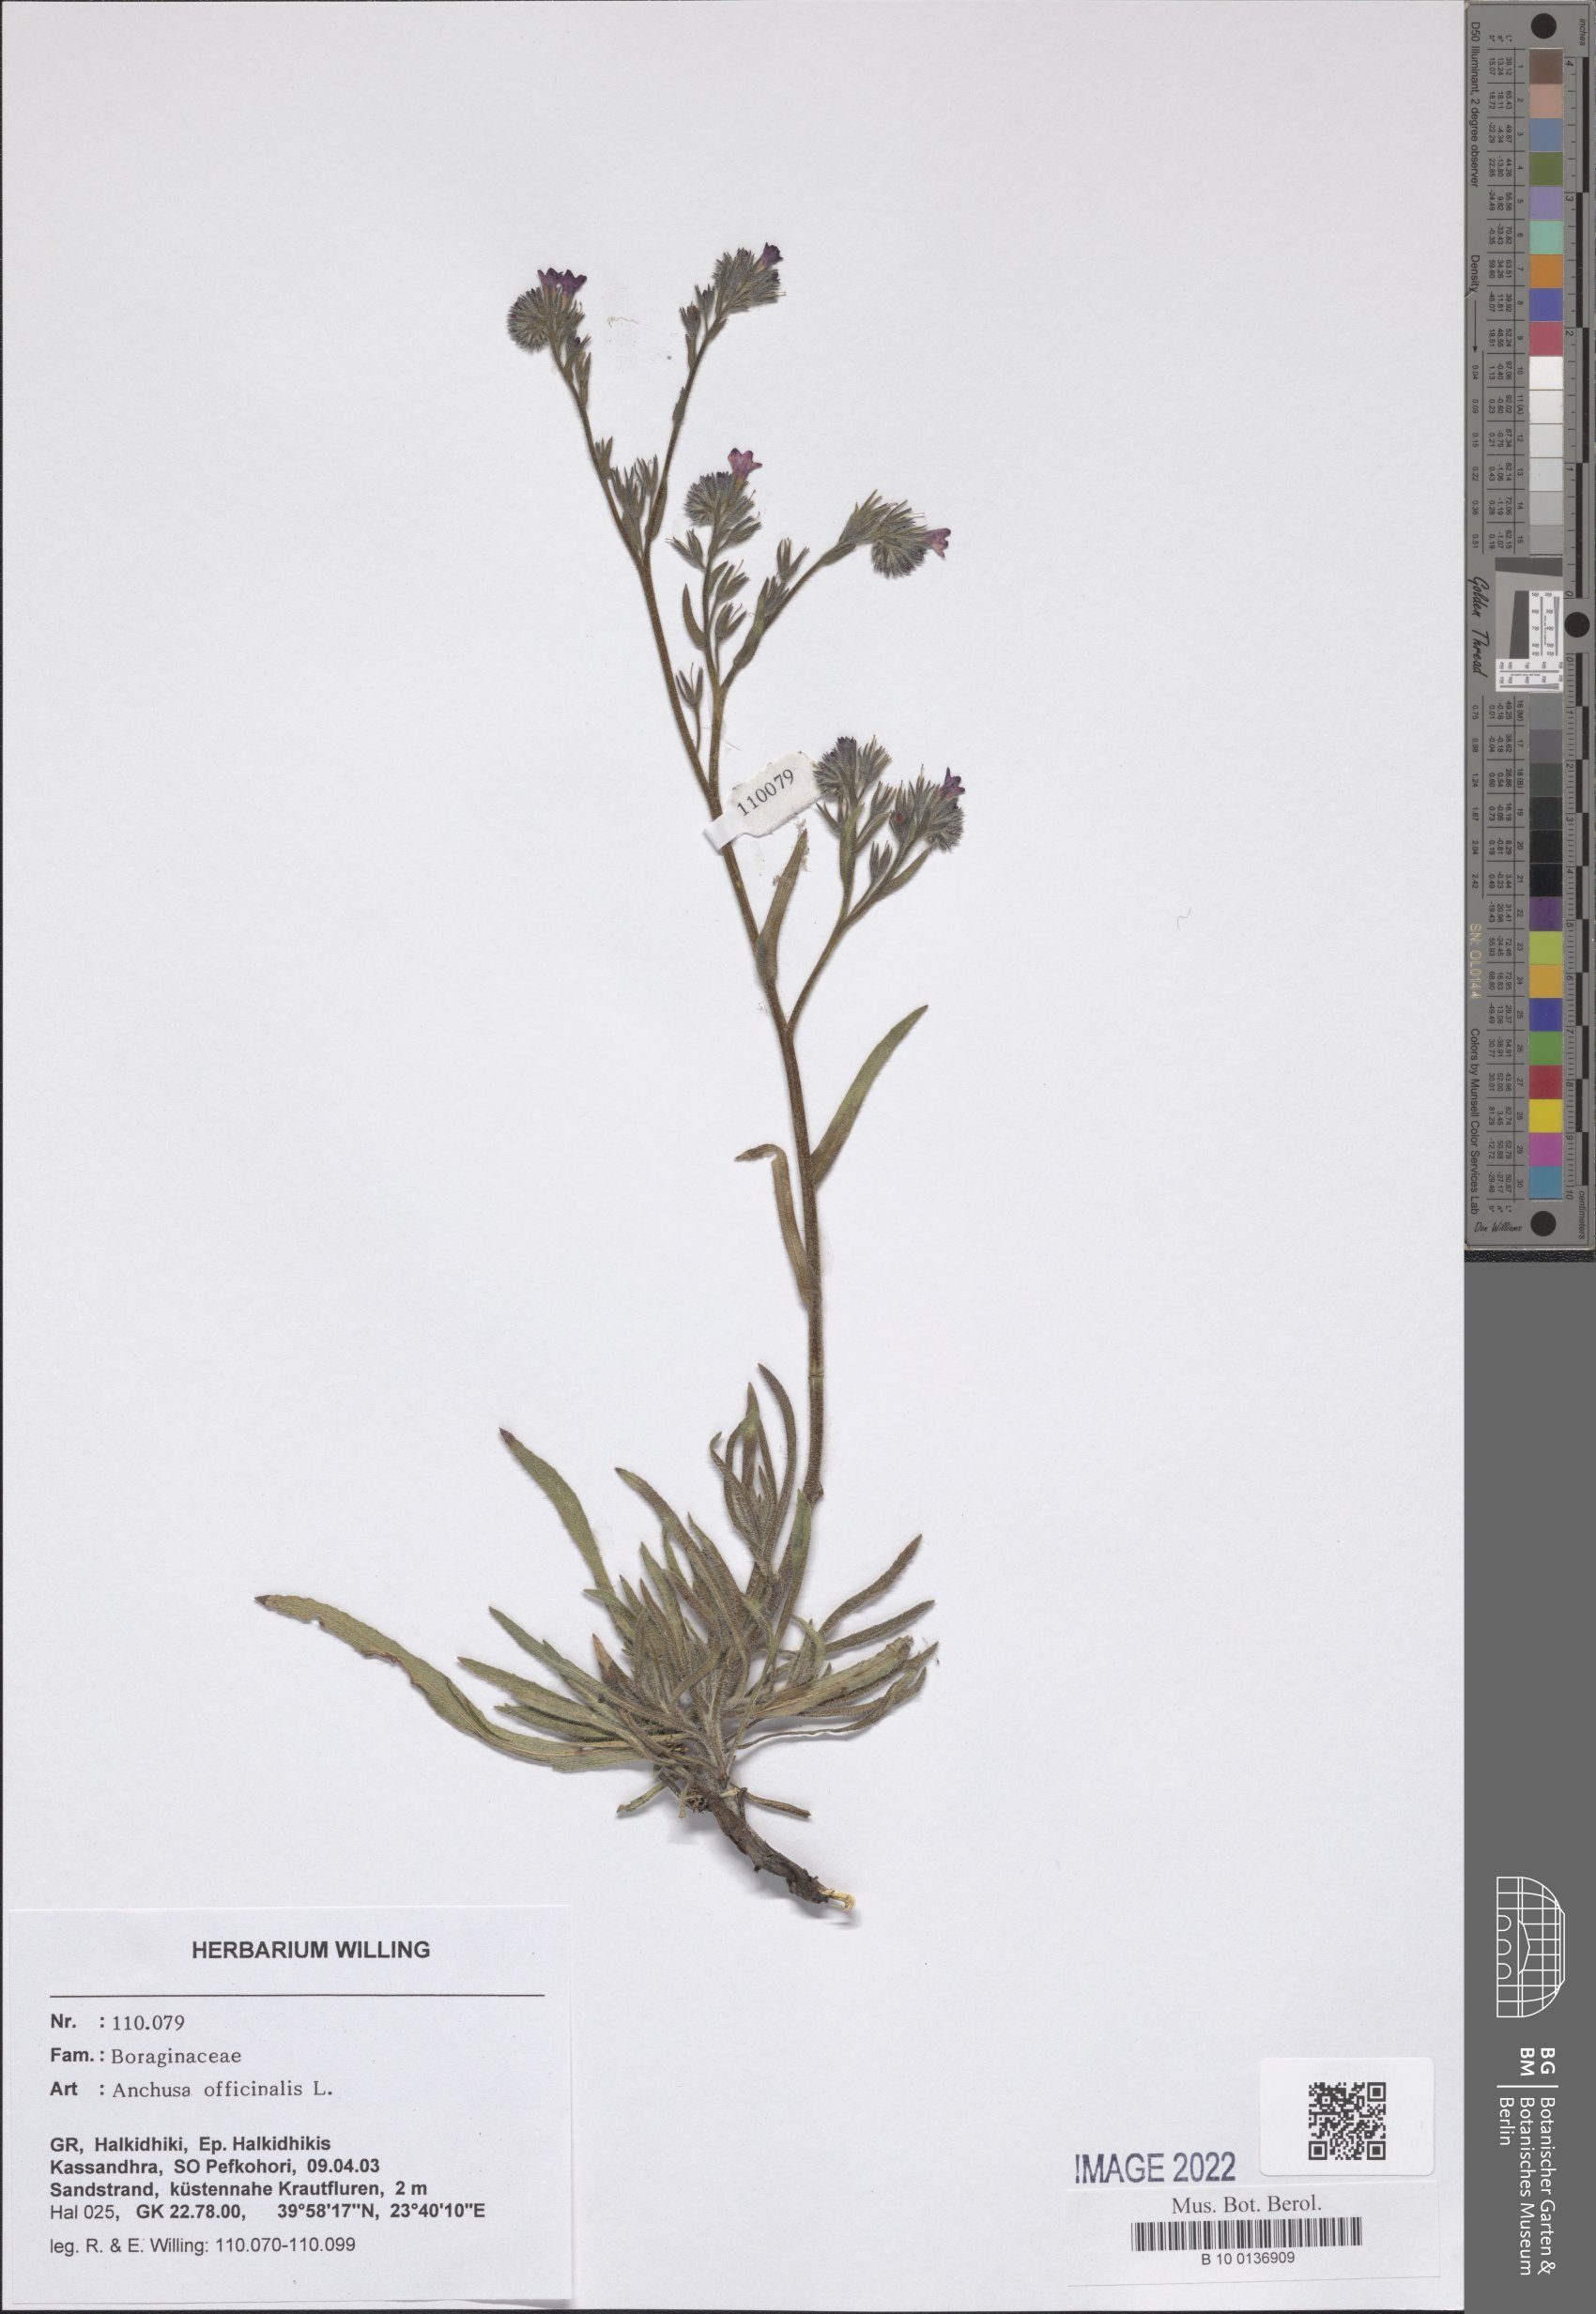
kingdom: Plantae
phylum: Tracheophyta
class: Magnoliopsida
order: Boraginales
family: Boraginaceae
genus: Anchusa
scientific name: Anchusa officinalis
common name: Alkanet
